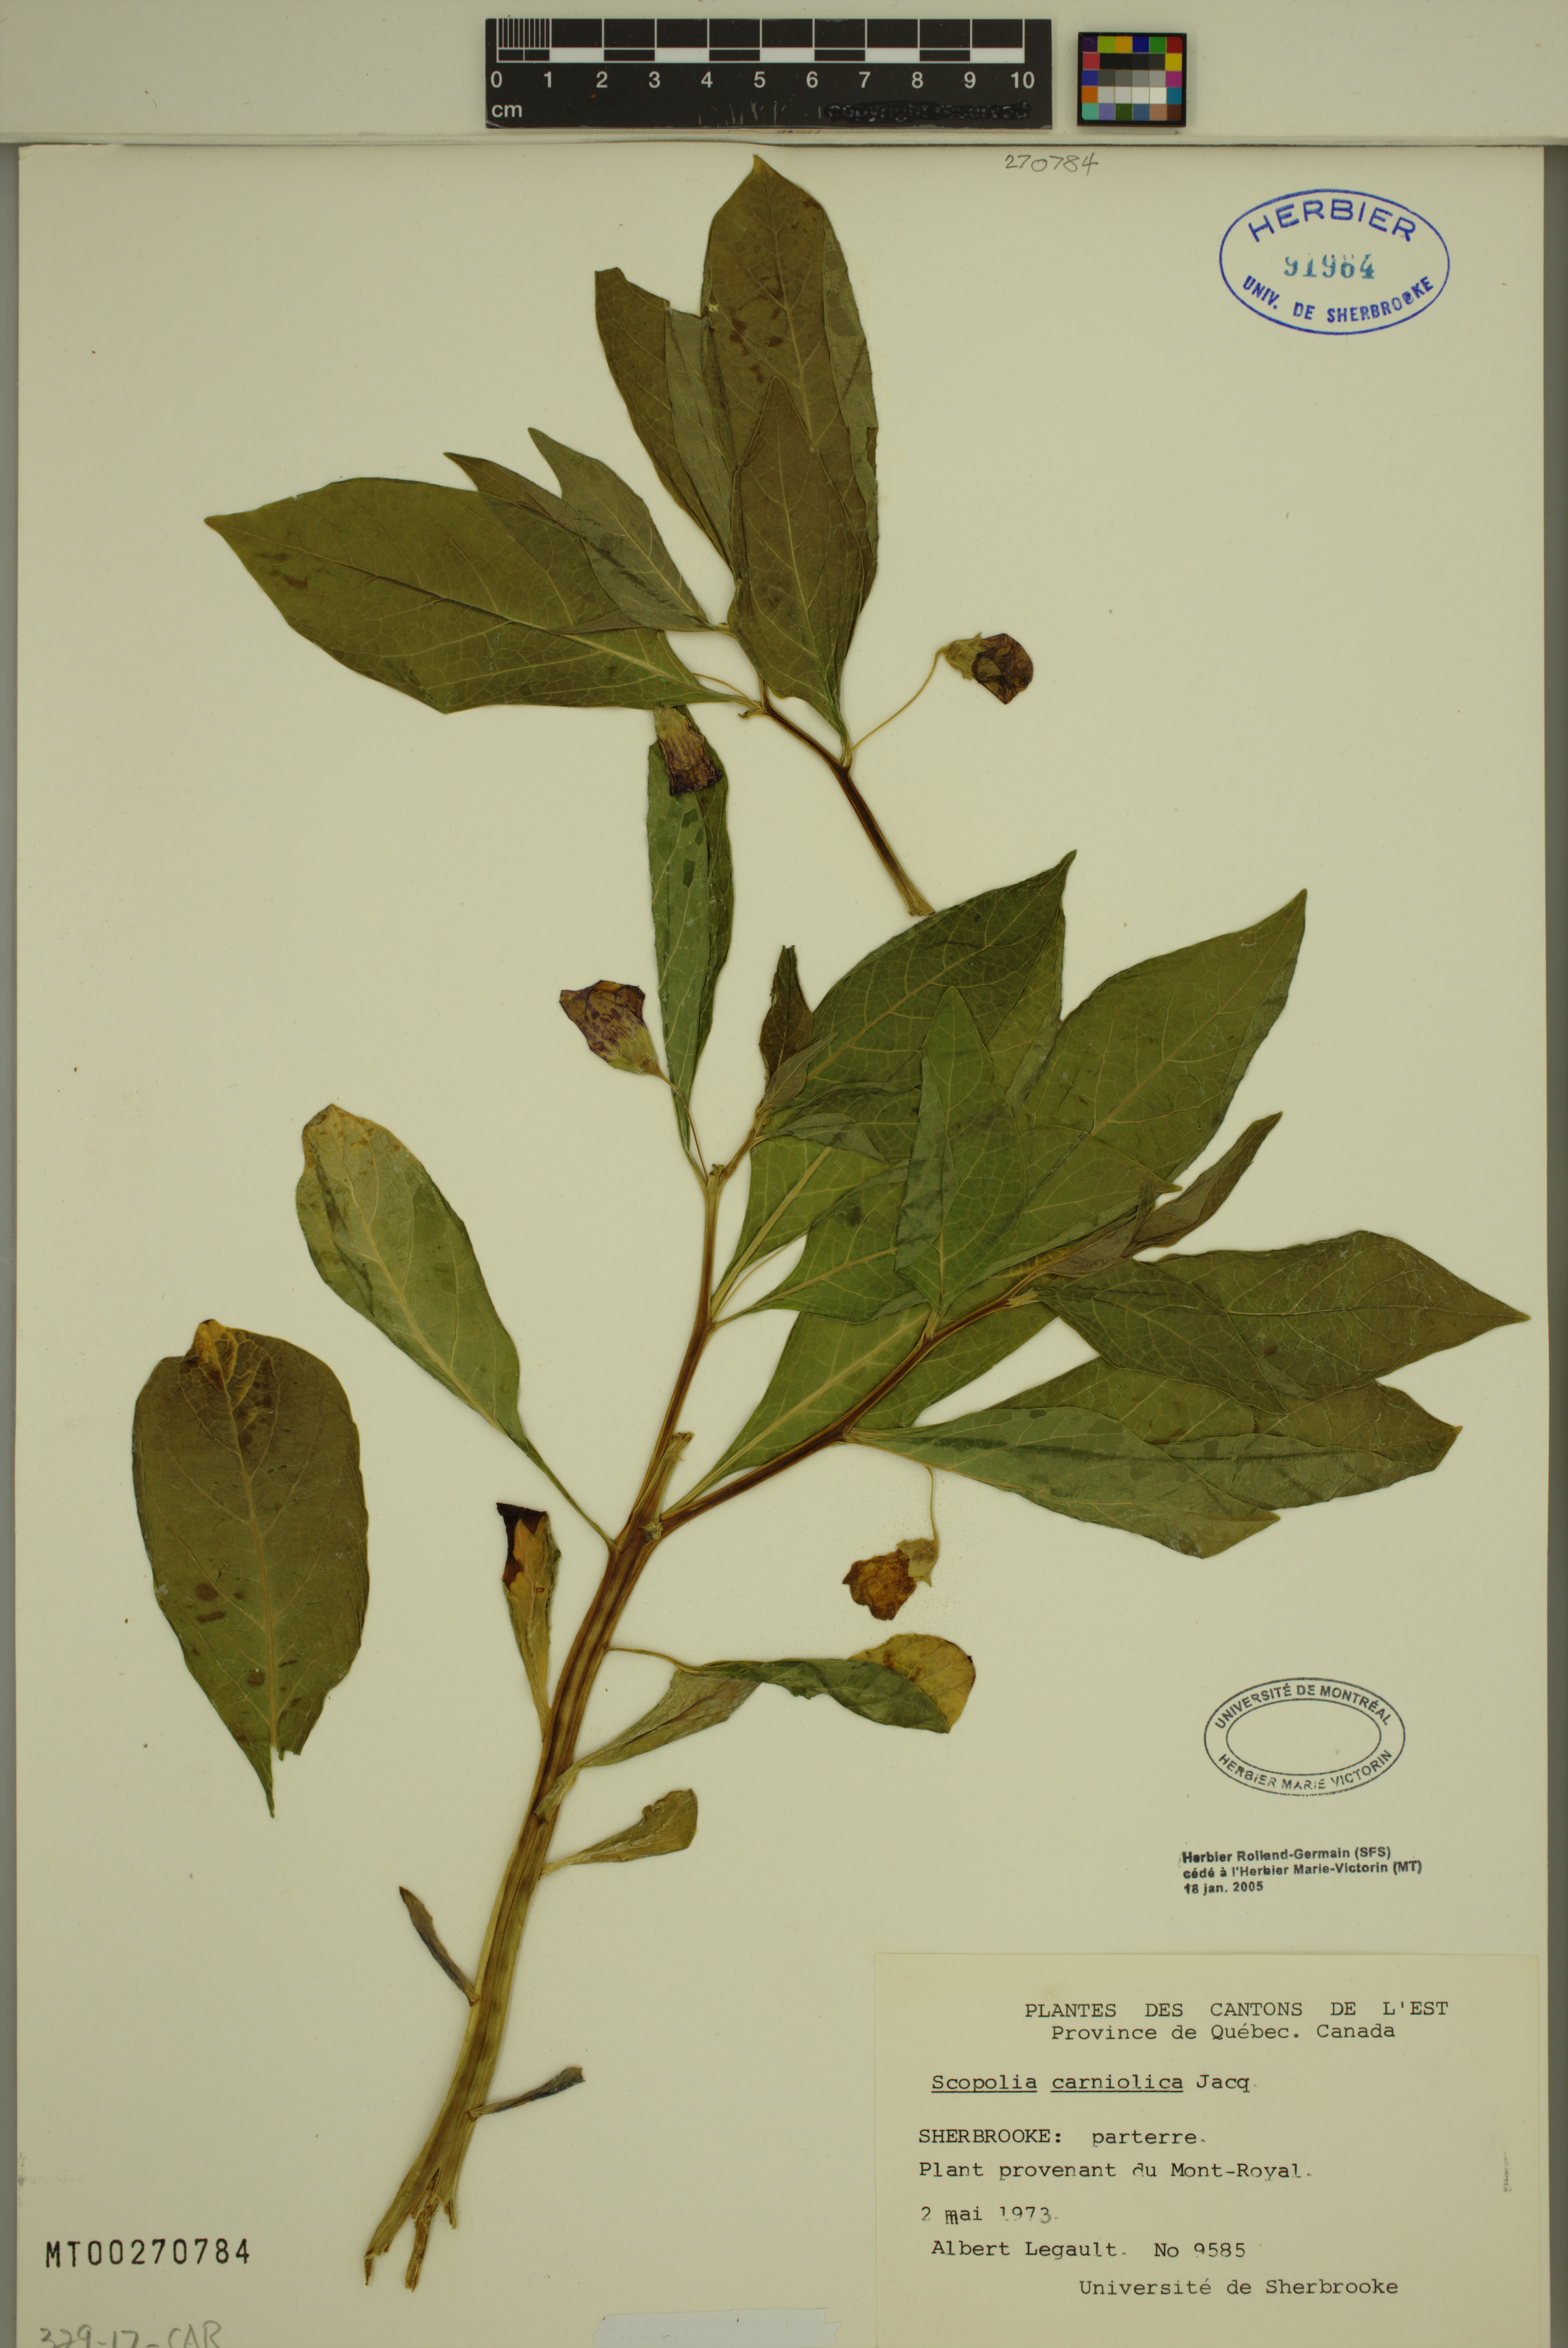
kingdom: Plantae
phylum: Tracheophyta
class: Magnoliopsida
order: Solanales
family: Solanaceae
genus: Scopolia
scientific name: Scopolia carniolica
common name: Scopolia
